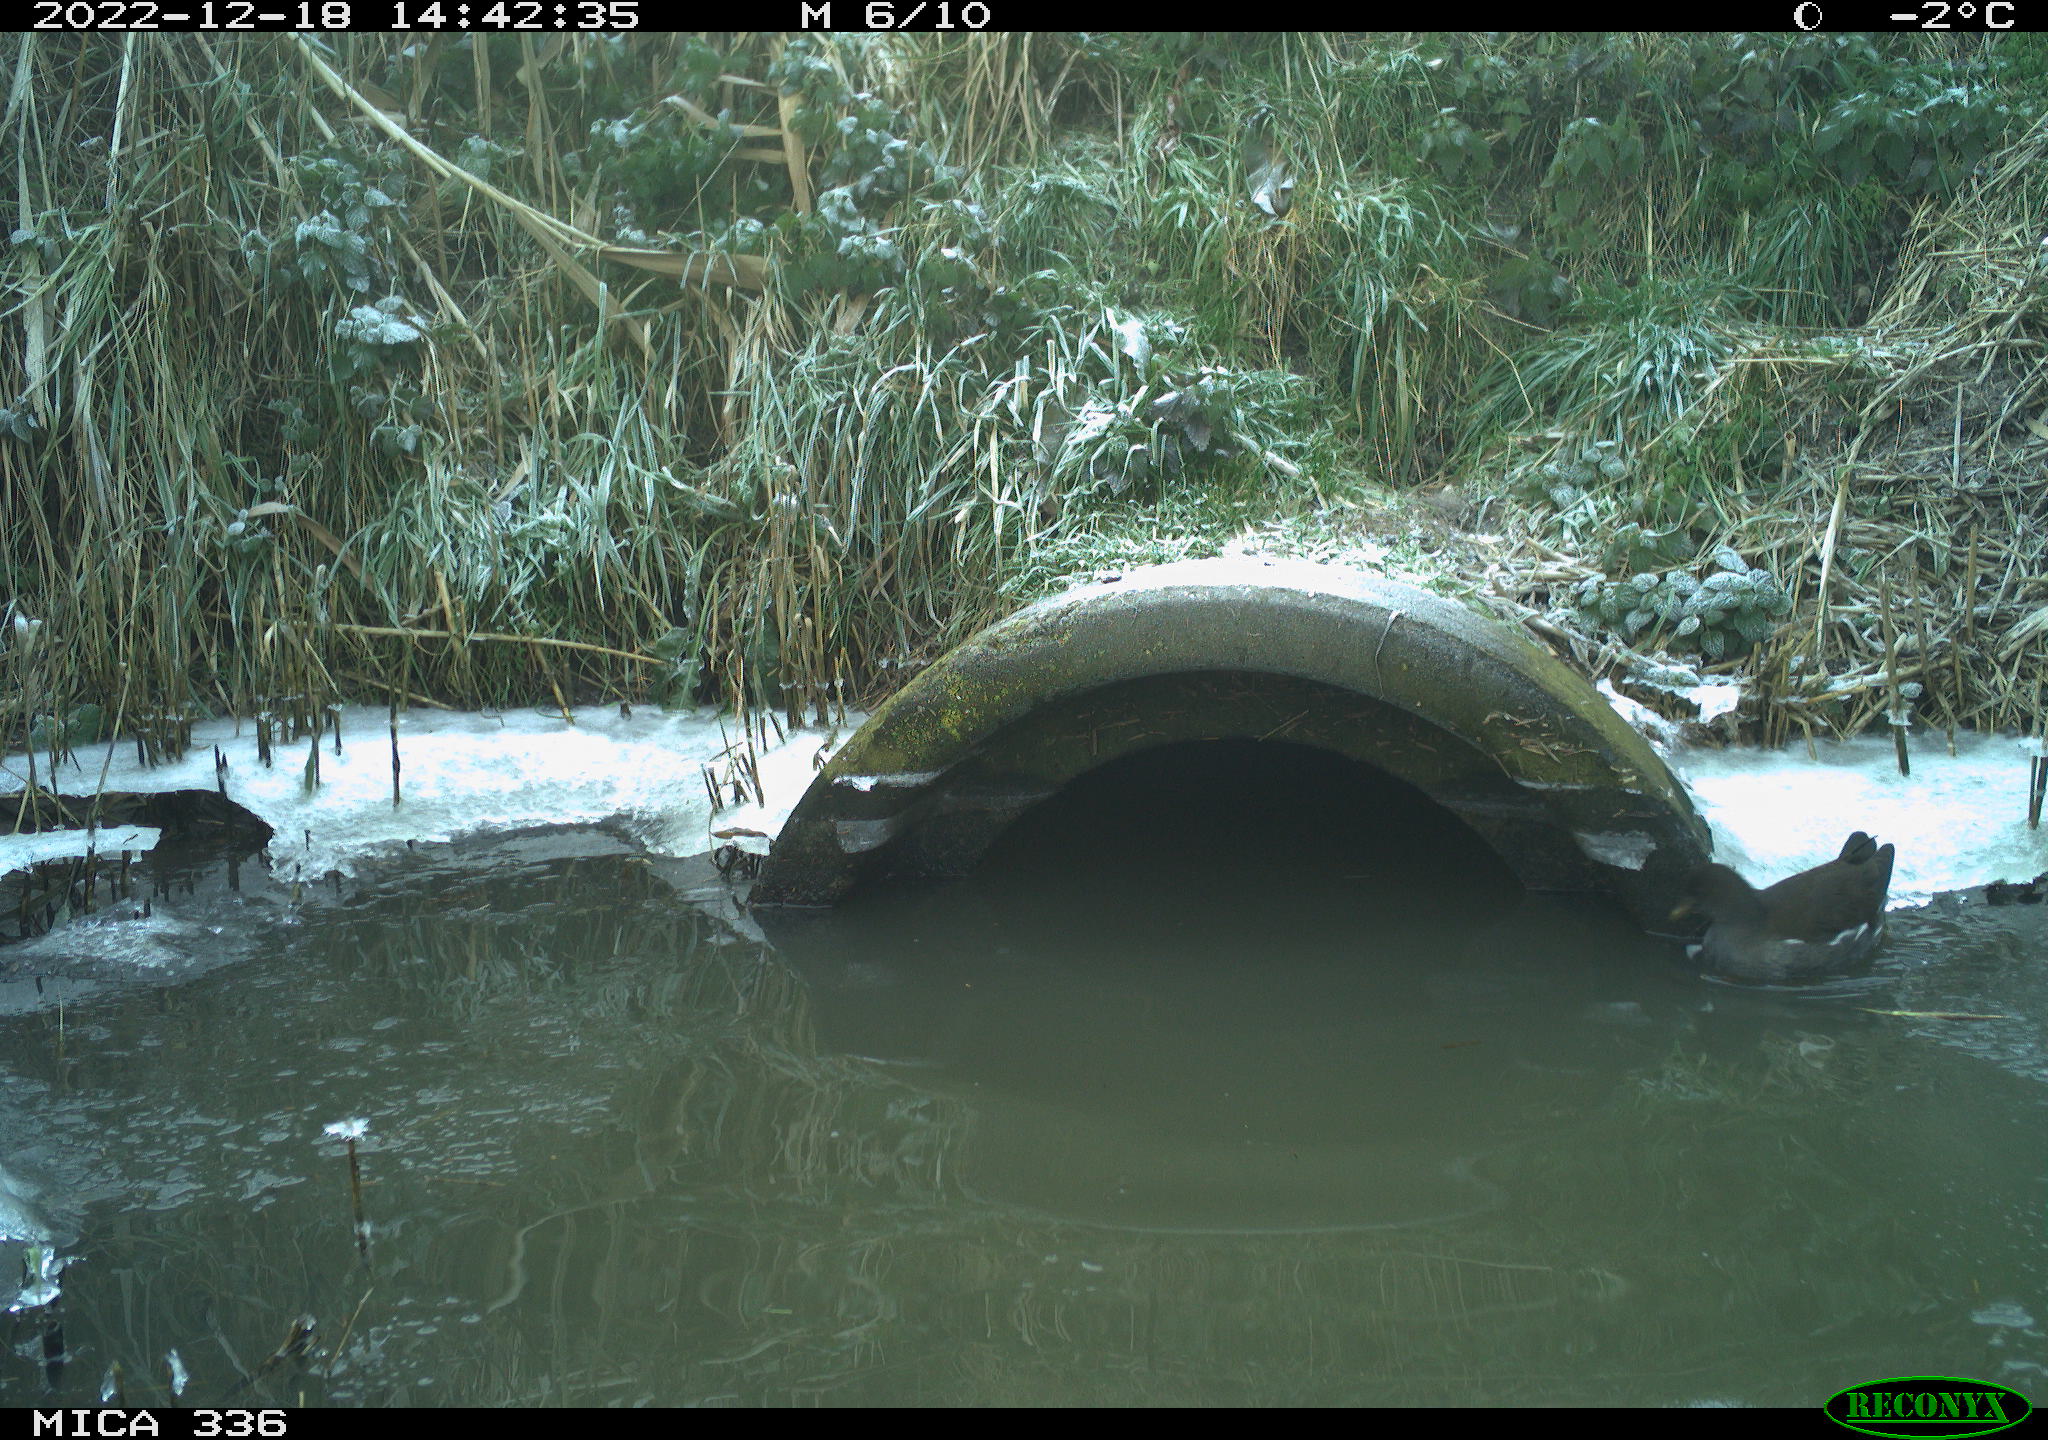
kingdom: Animalia
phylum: Chordata
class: Aves
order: Gruiformes
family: Rallidae
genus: Gallinula
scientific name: Gallinula chloropus
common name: Common moorhen
